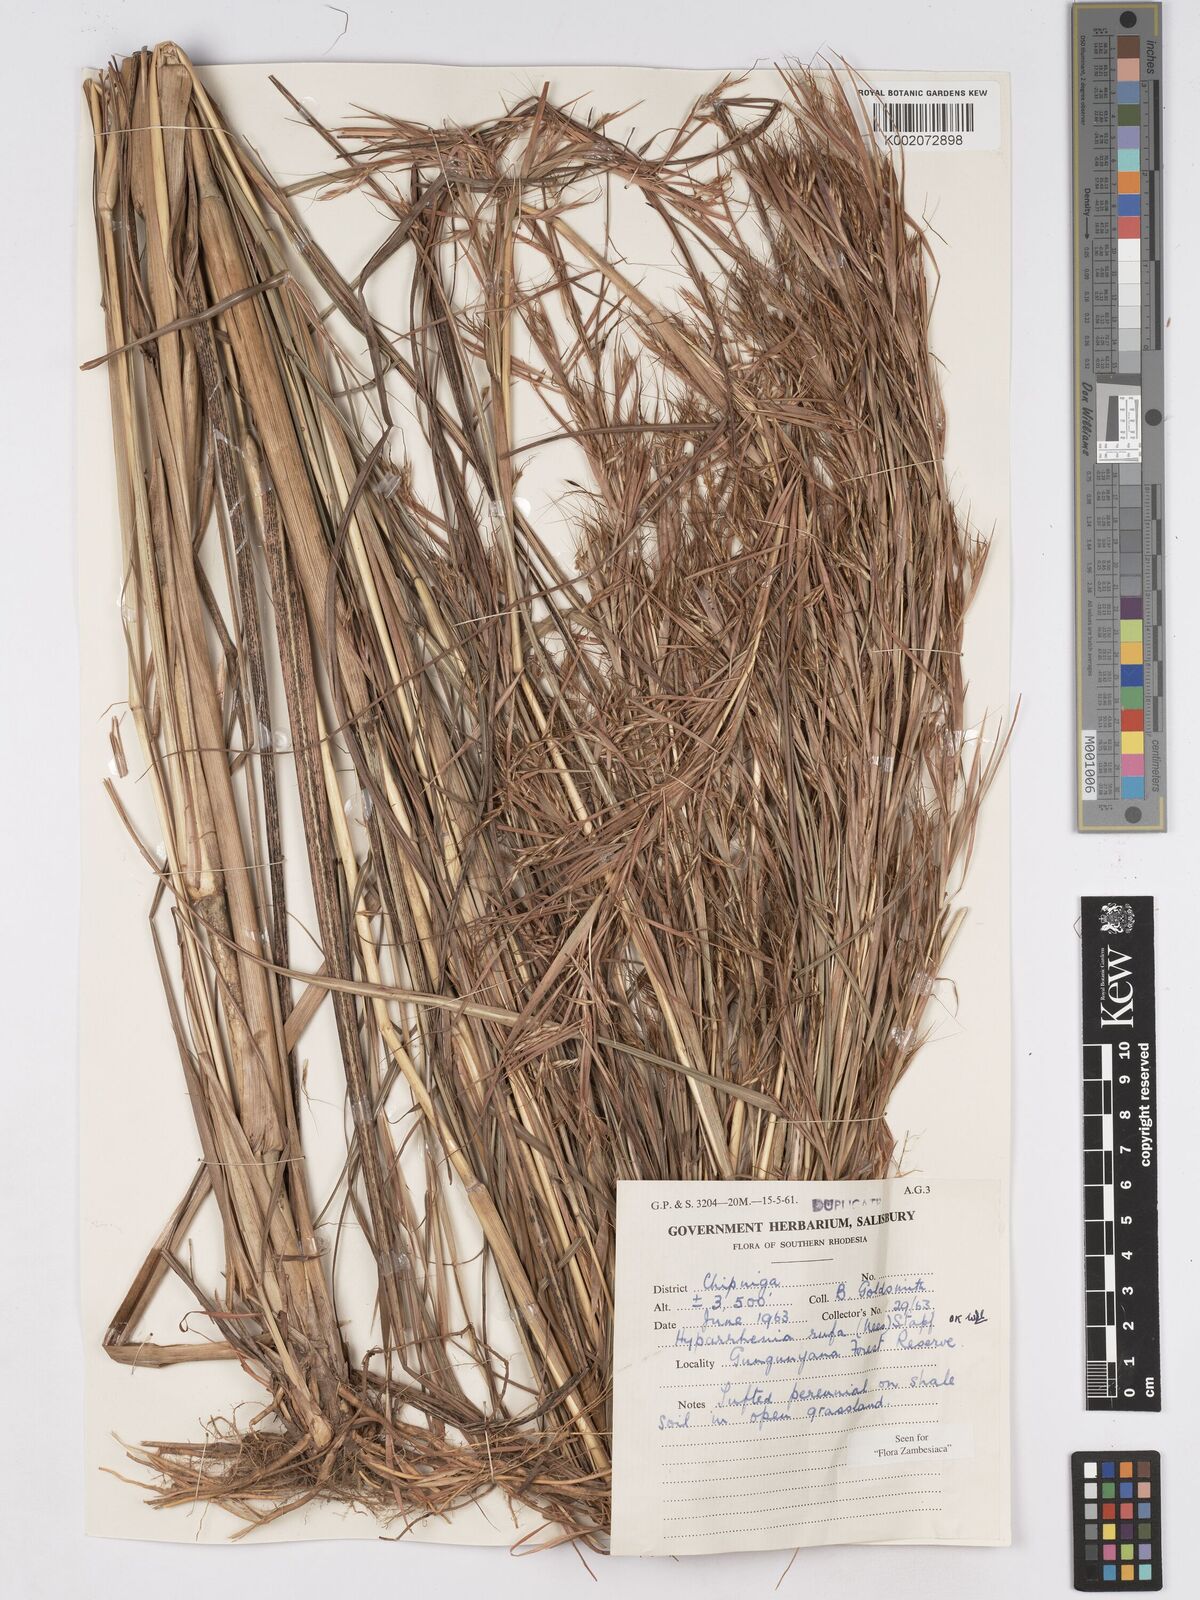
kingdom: Plantae
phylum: Tracheophyta
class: Liliopsida
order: Poales
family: Poaceae
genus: Hyparrhenia
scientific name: Hyparrhenia rufa
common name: Jaraguagrass
